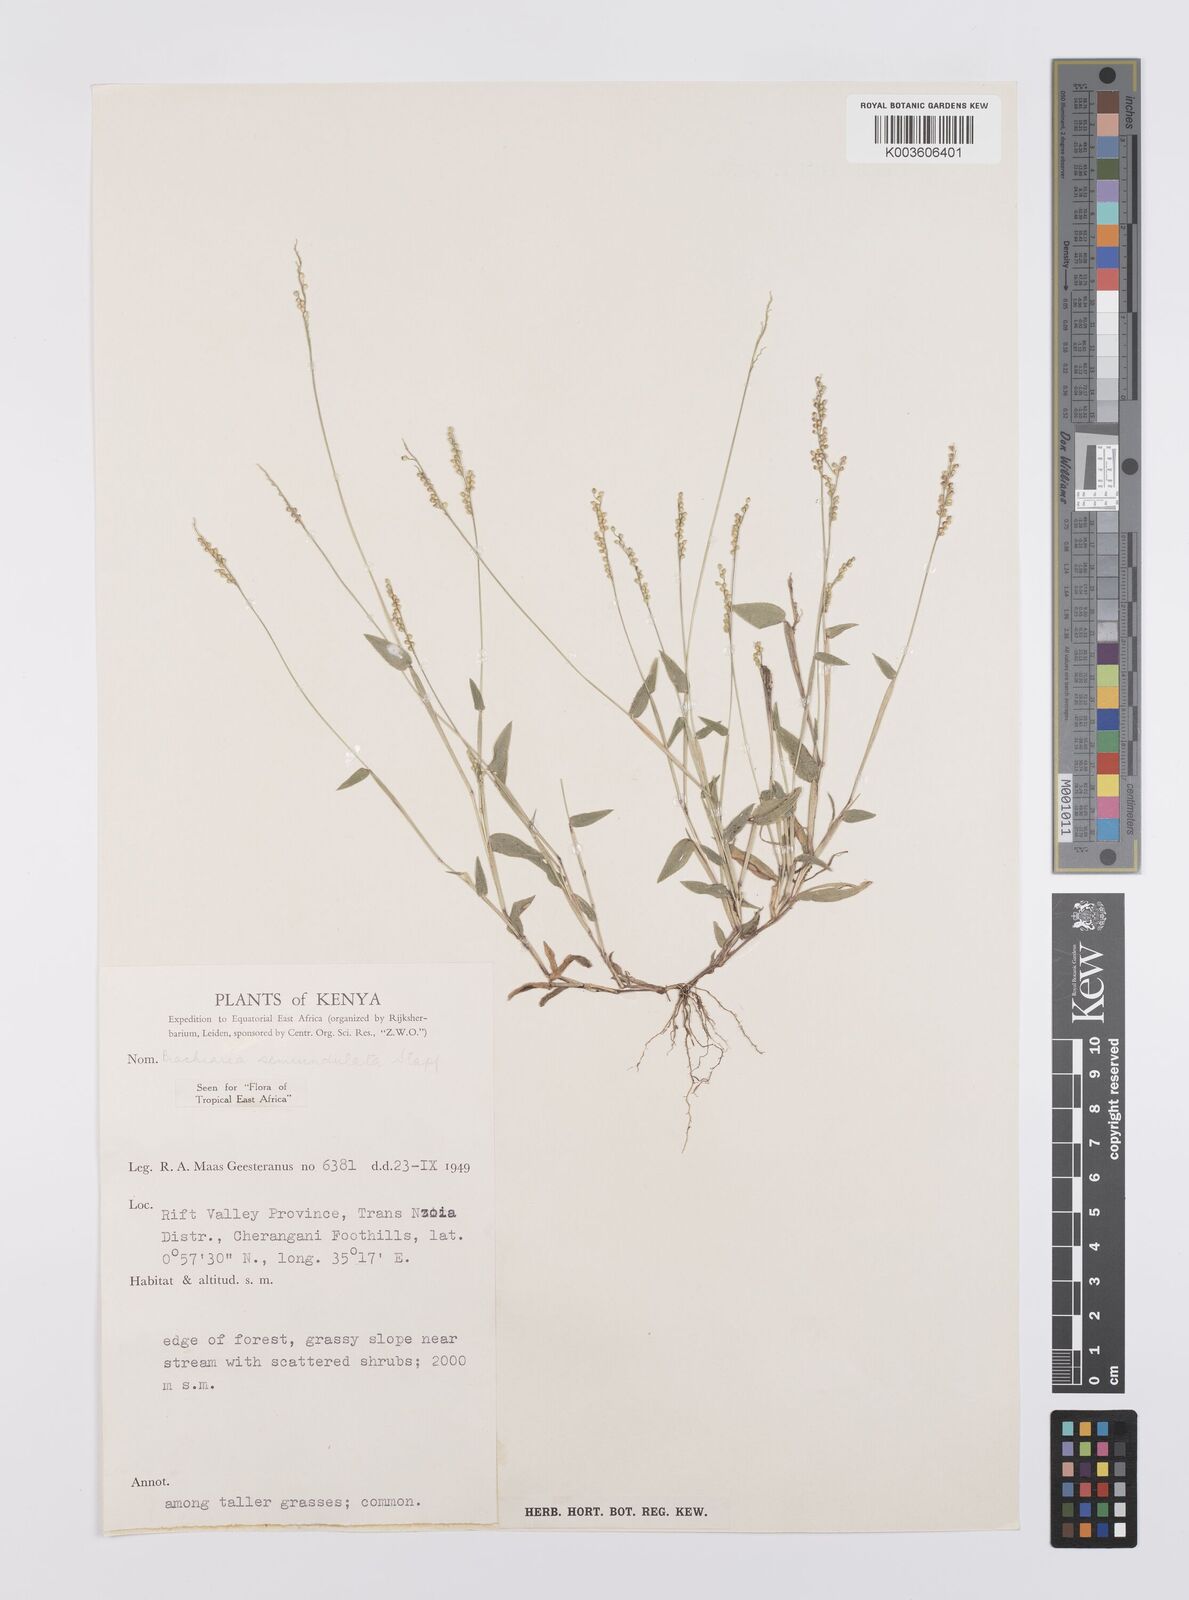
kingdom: Plantae
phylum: Tracheophyta
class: Liliopsida
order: Poales
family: Poaceae
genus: Urochloa
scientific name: Urochloa semiundulata
